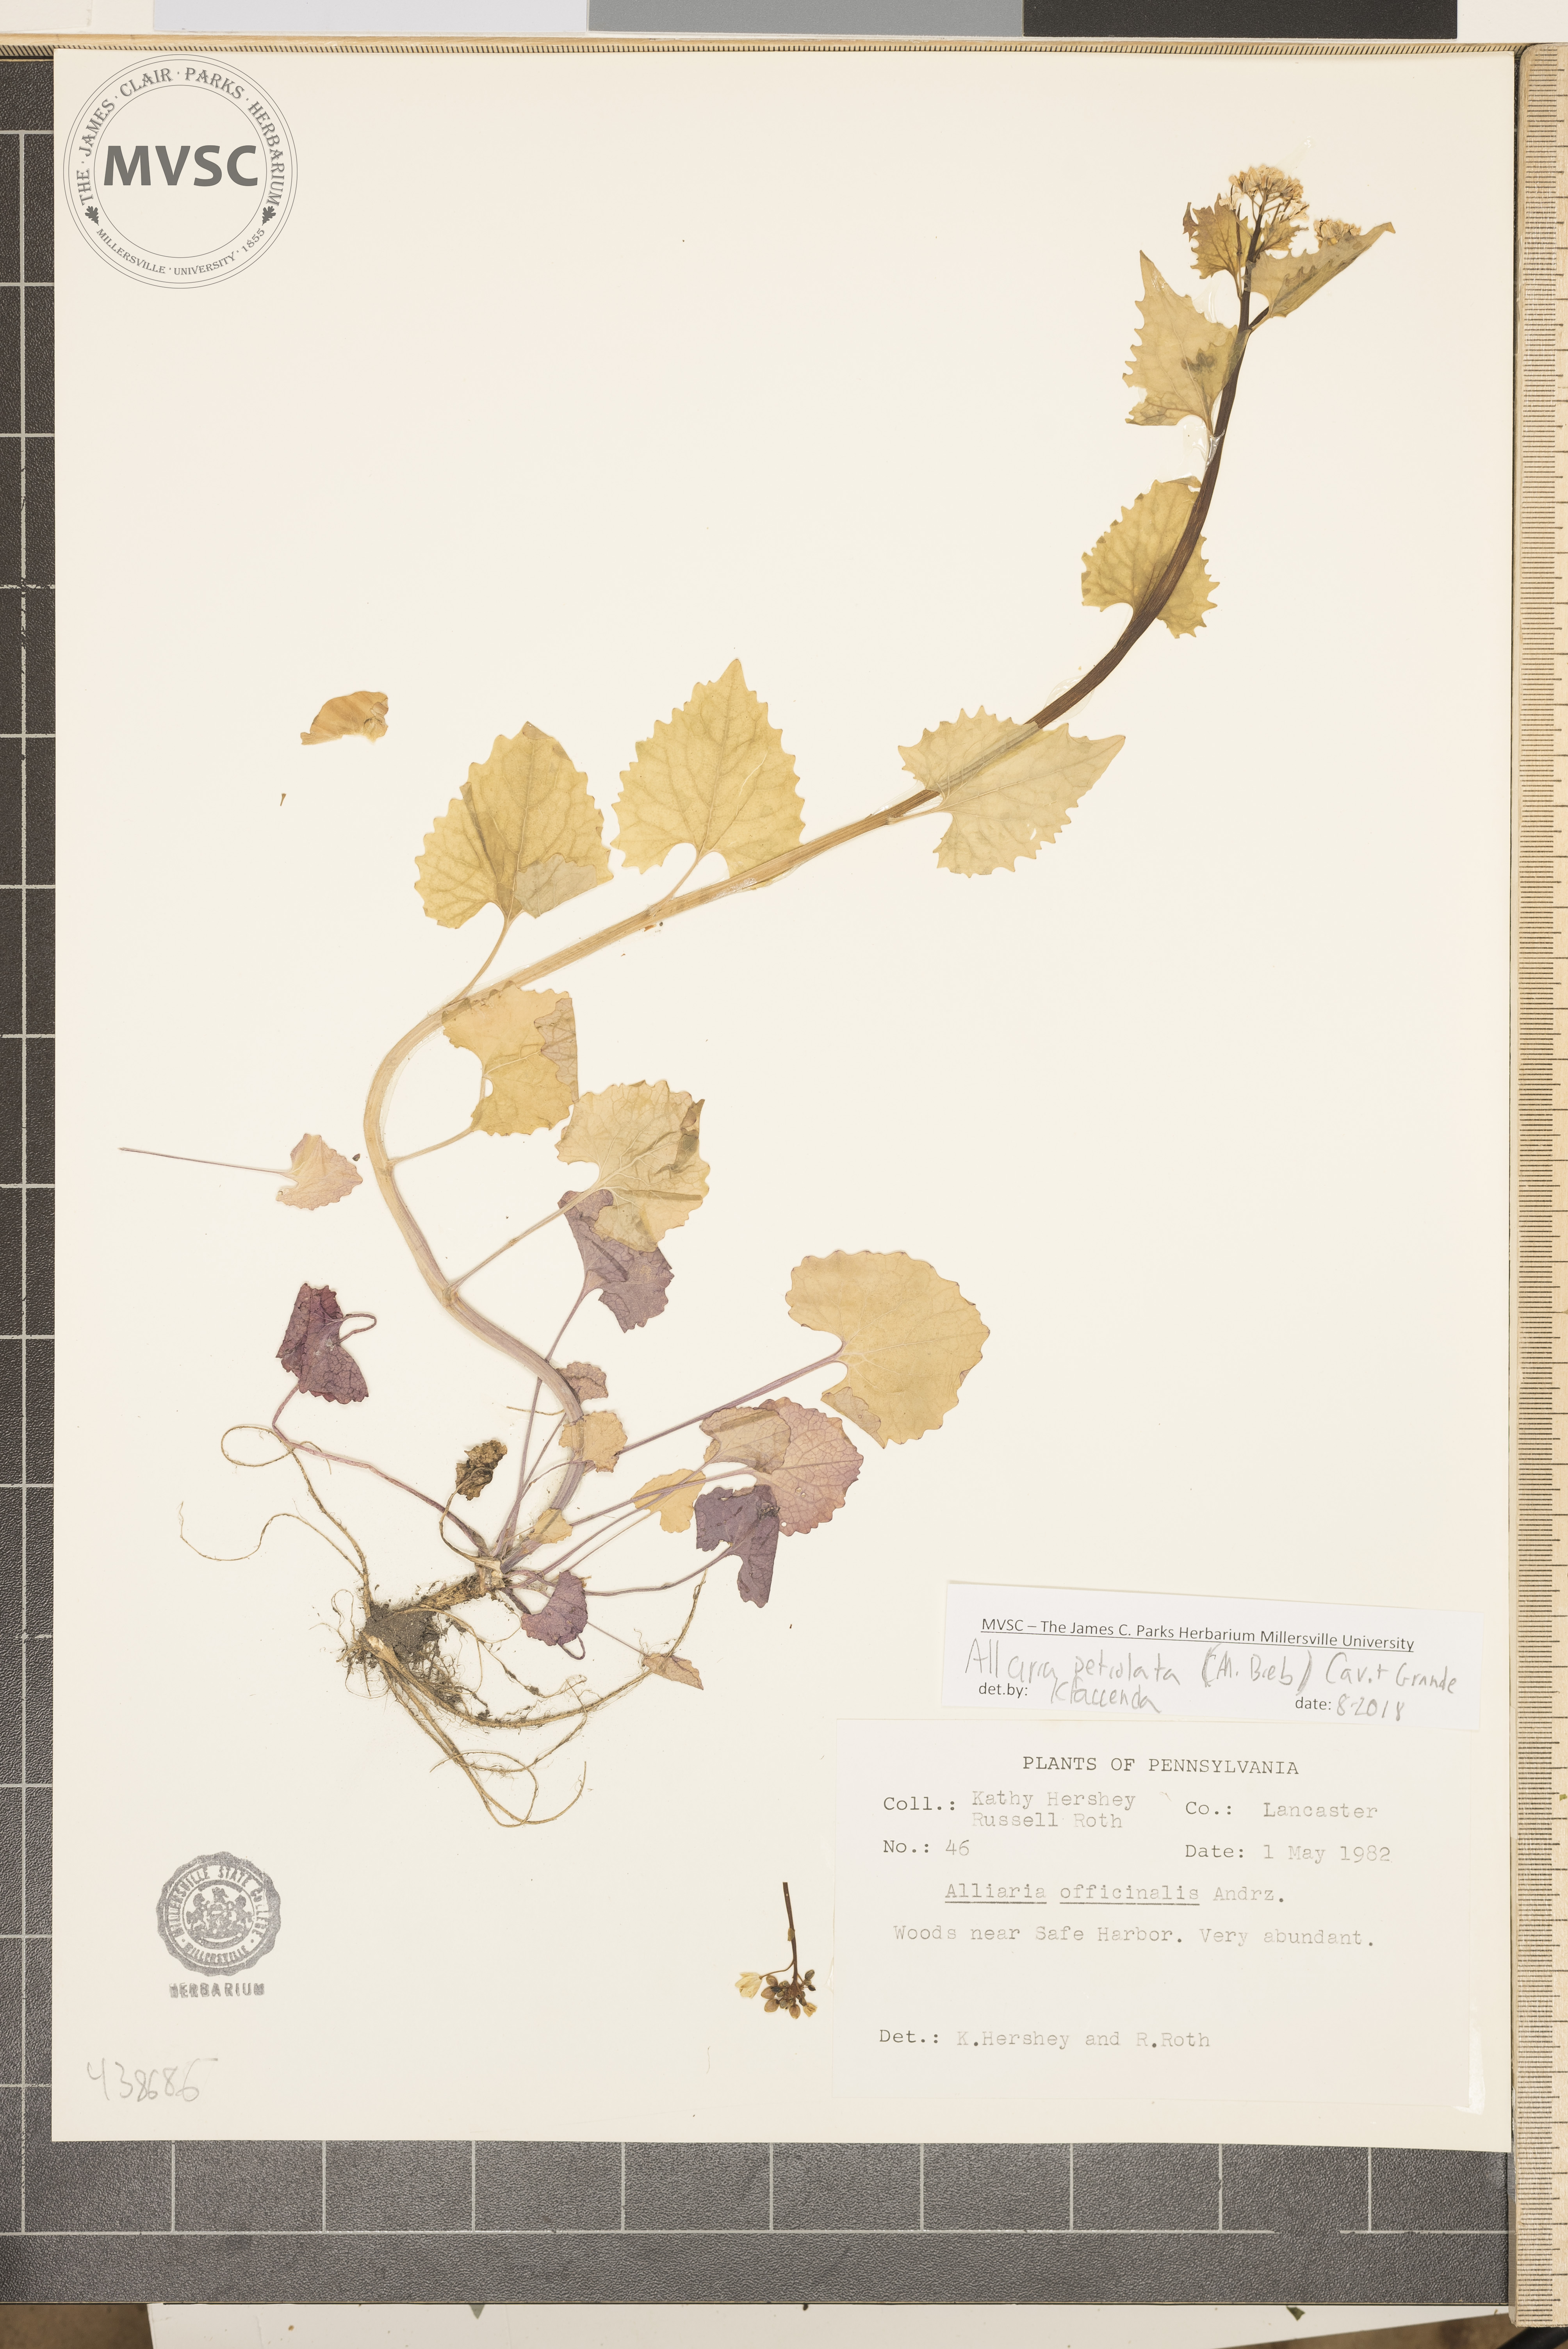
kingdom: Plantae
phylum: Tracheophyta
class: Magnoliopsida
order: Brassicales
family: Brassicaceae
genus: Alliaria
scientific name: Alliaria petiolata
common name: Garlic mustard
